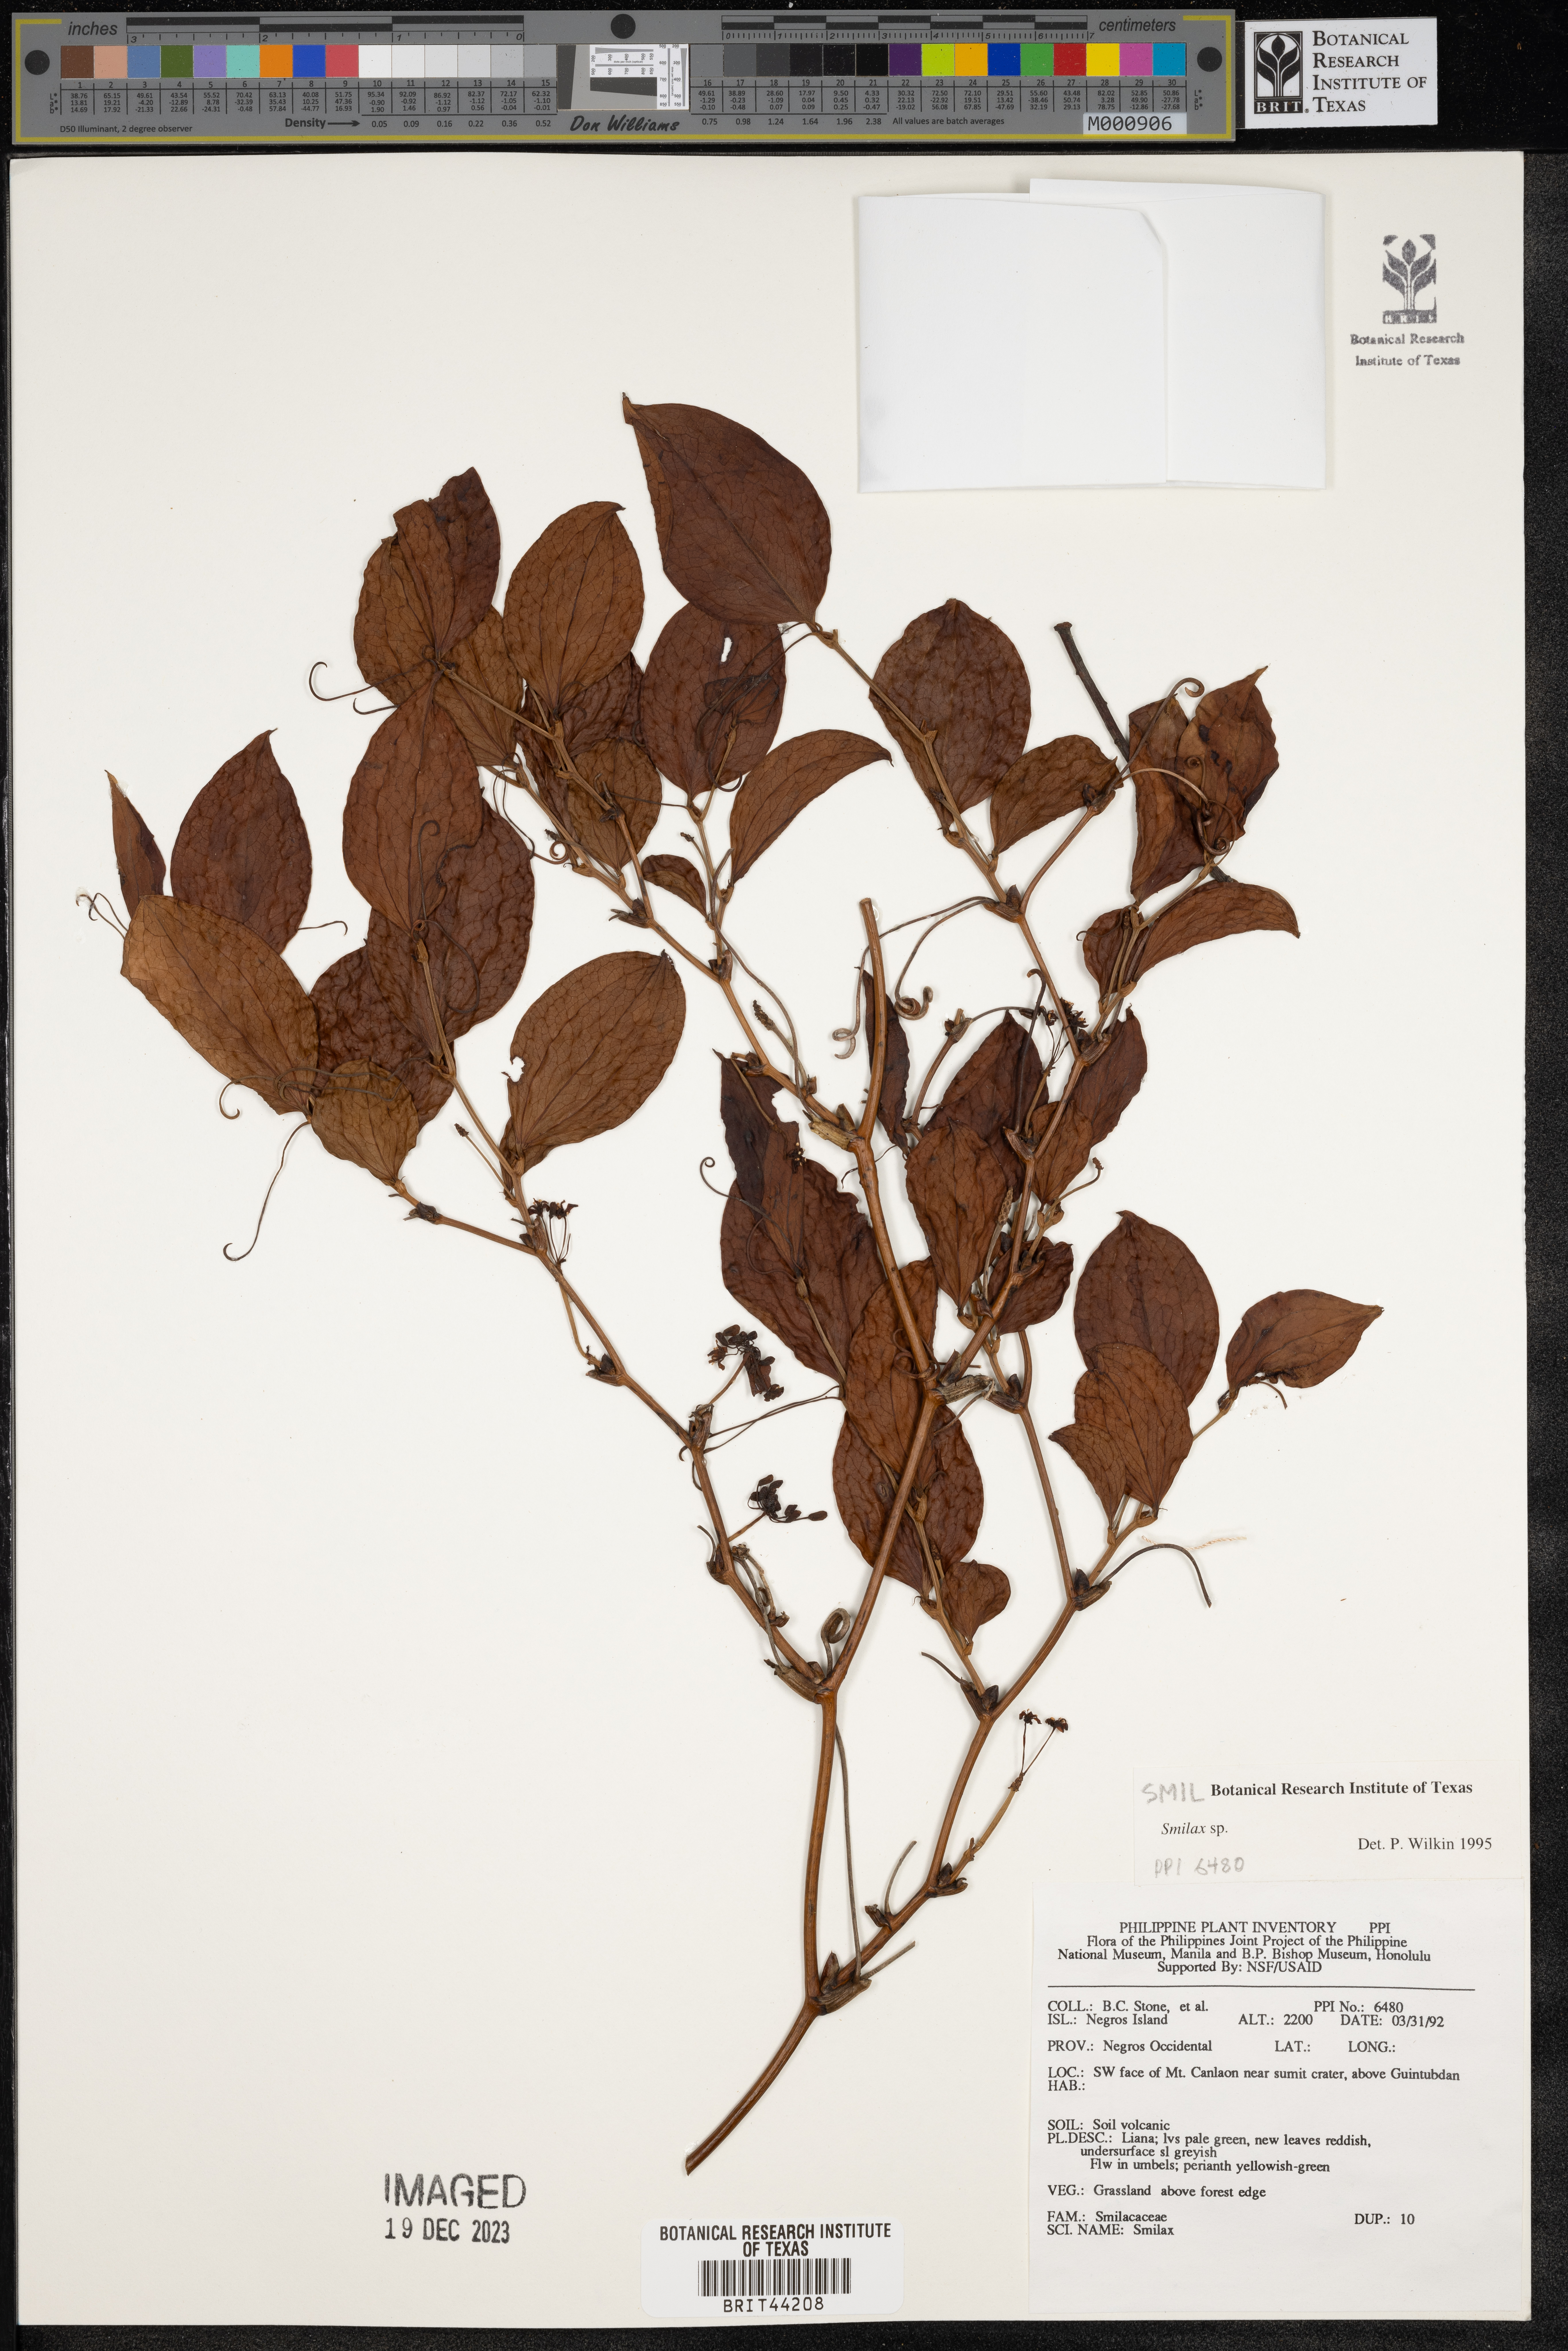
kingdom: Plantae
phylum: Tracheophyta
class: Liliopsida
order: Liliales
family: Smilacaceae
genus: Smilax
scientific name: Smilax
